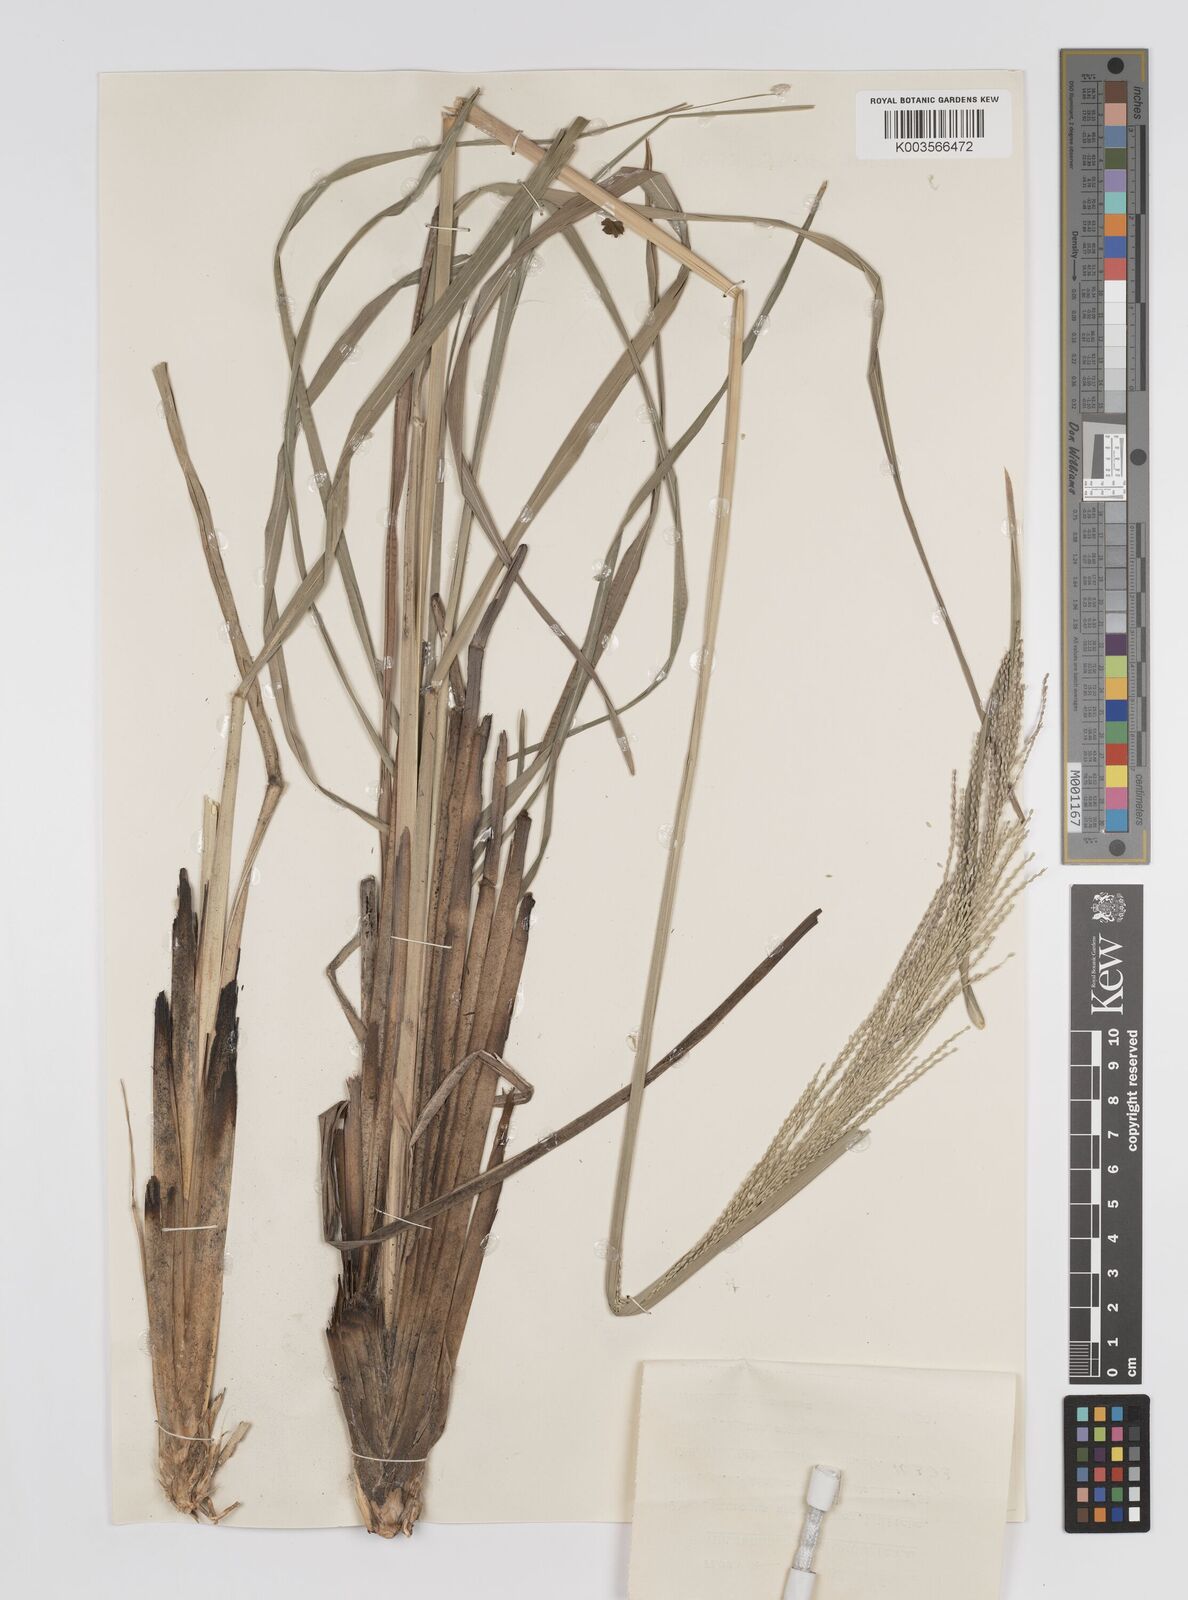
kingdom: Plantae
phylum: Tracheophyta
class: Liliopsida
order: Poales
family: Poaceae
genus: Axonopus
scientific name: Axonopus anceps
